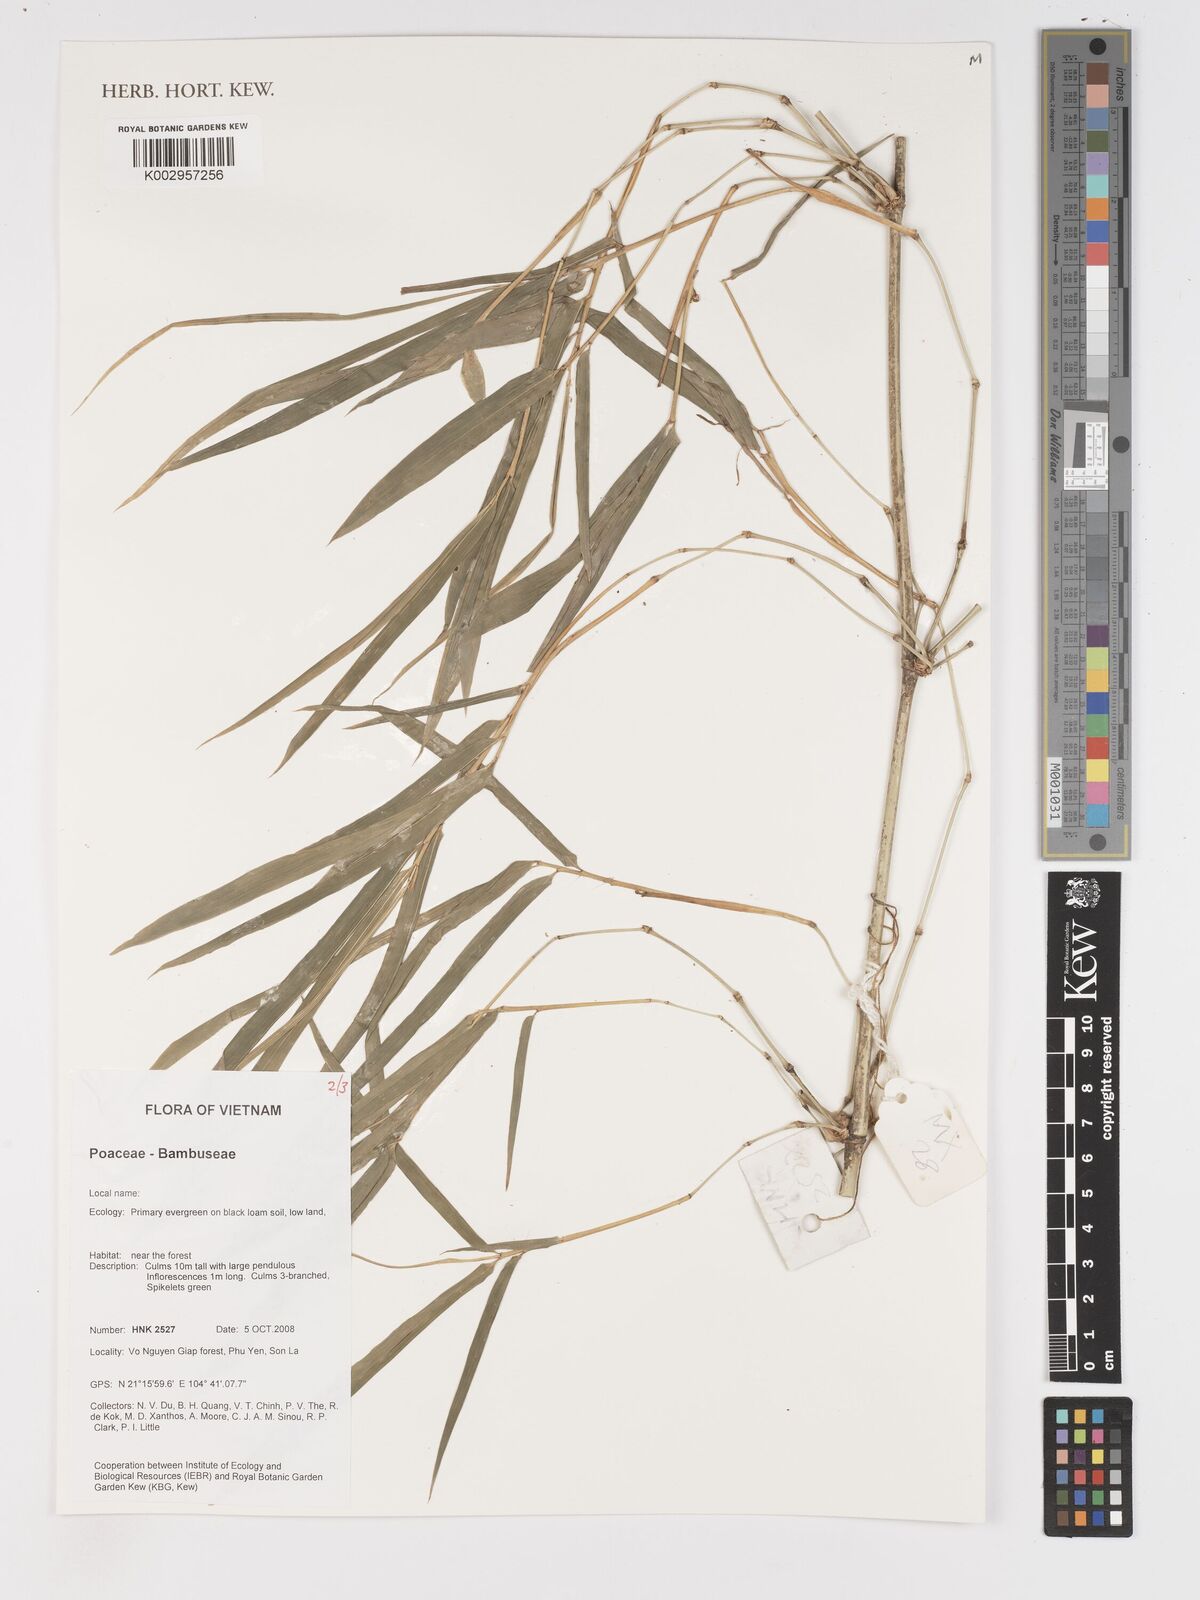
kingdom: Plantae
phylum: Tracheophyta
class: Liliopsida
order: Poales
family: Poaceae
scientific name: Poaceae
